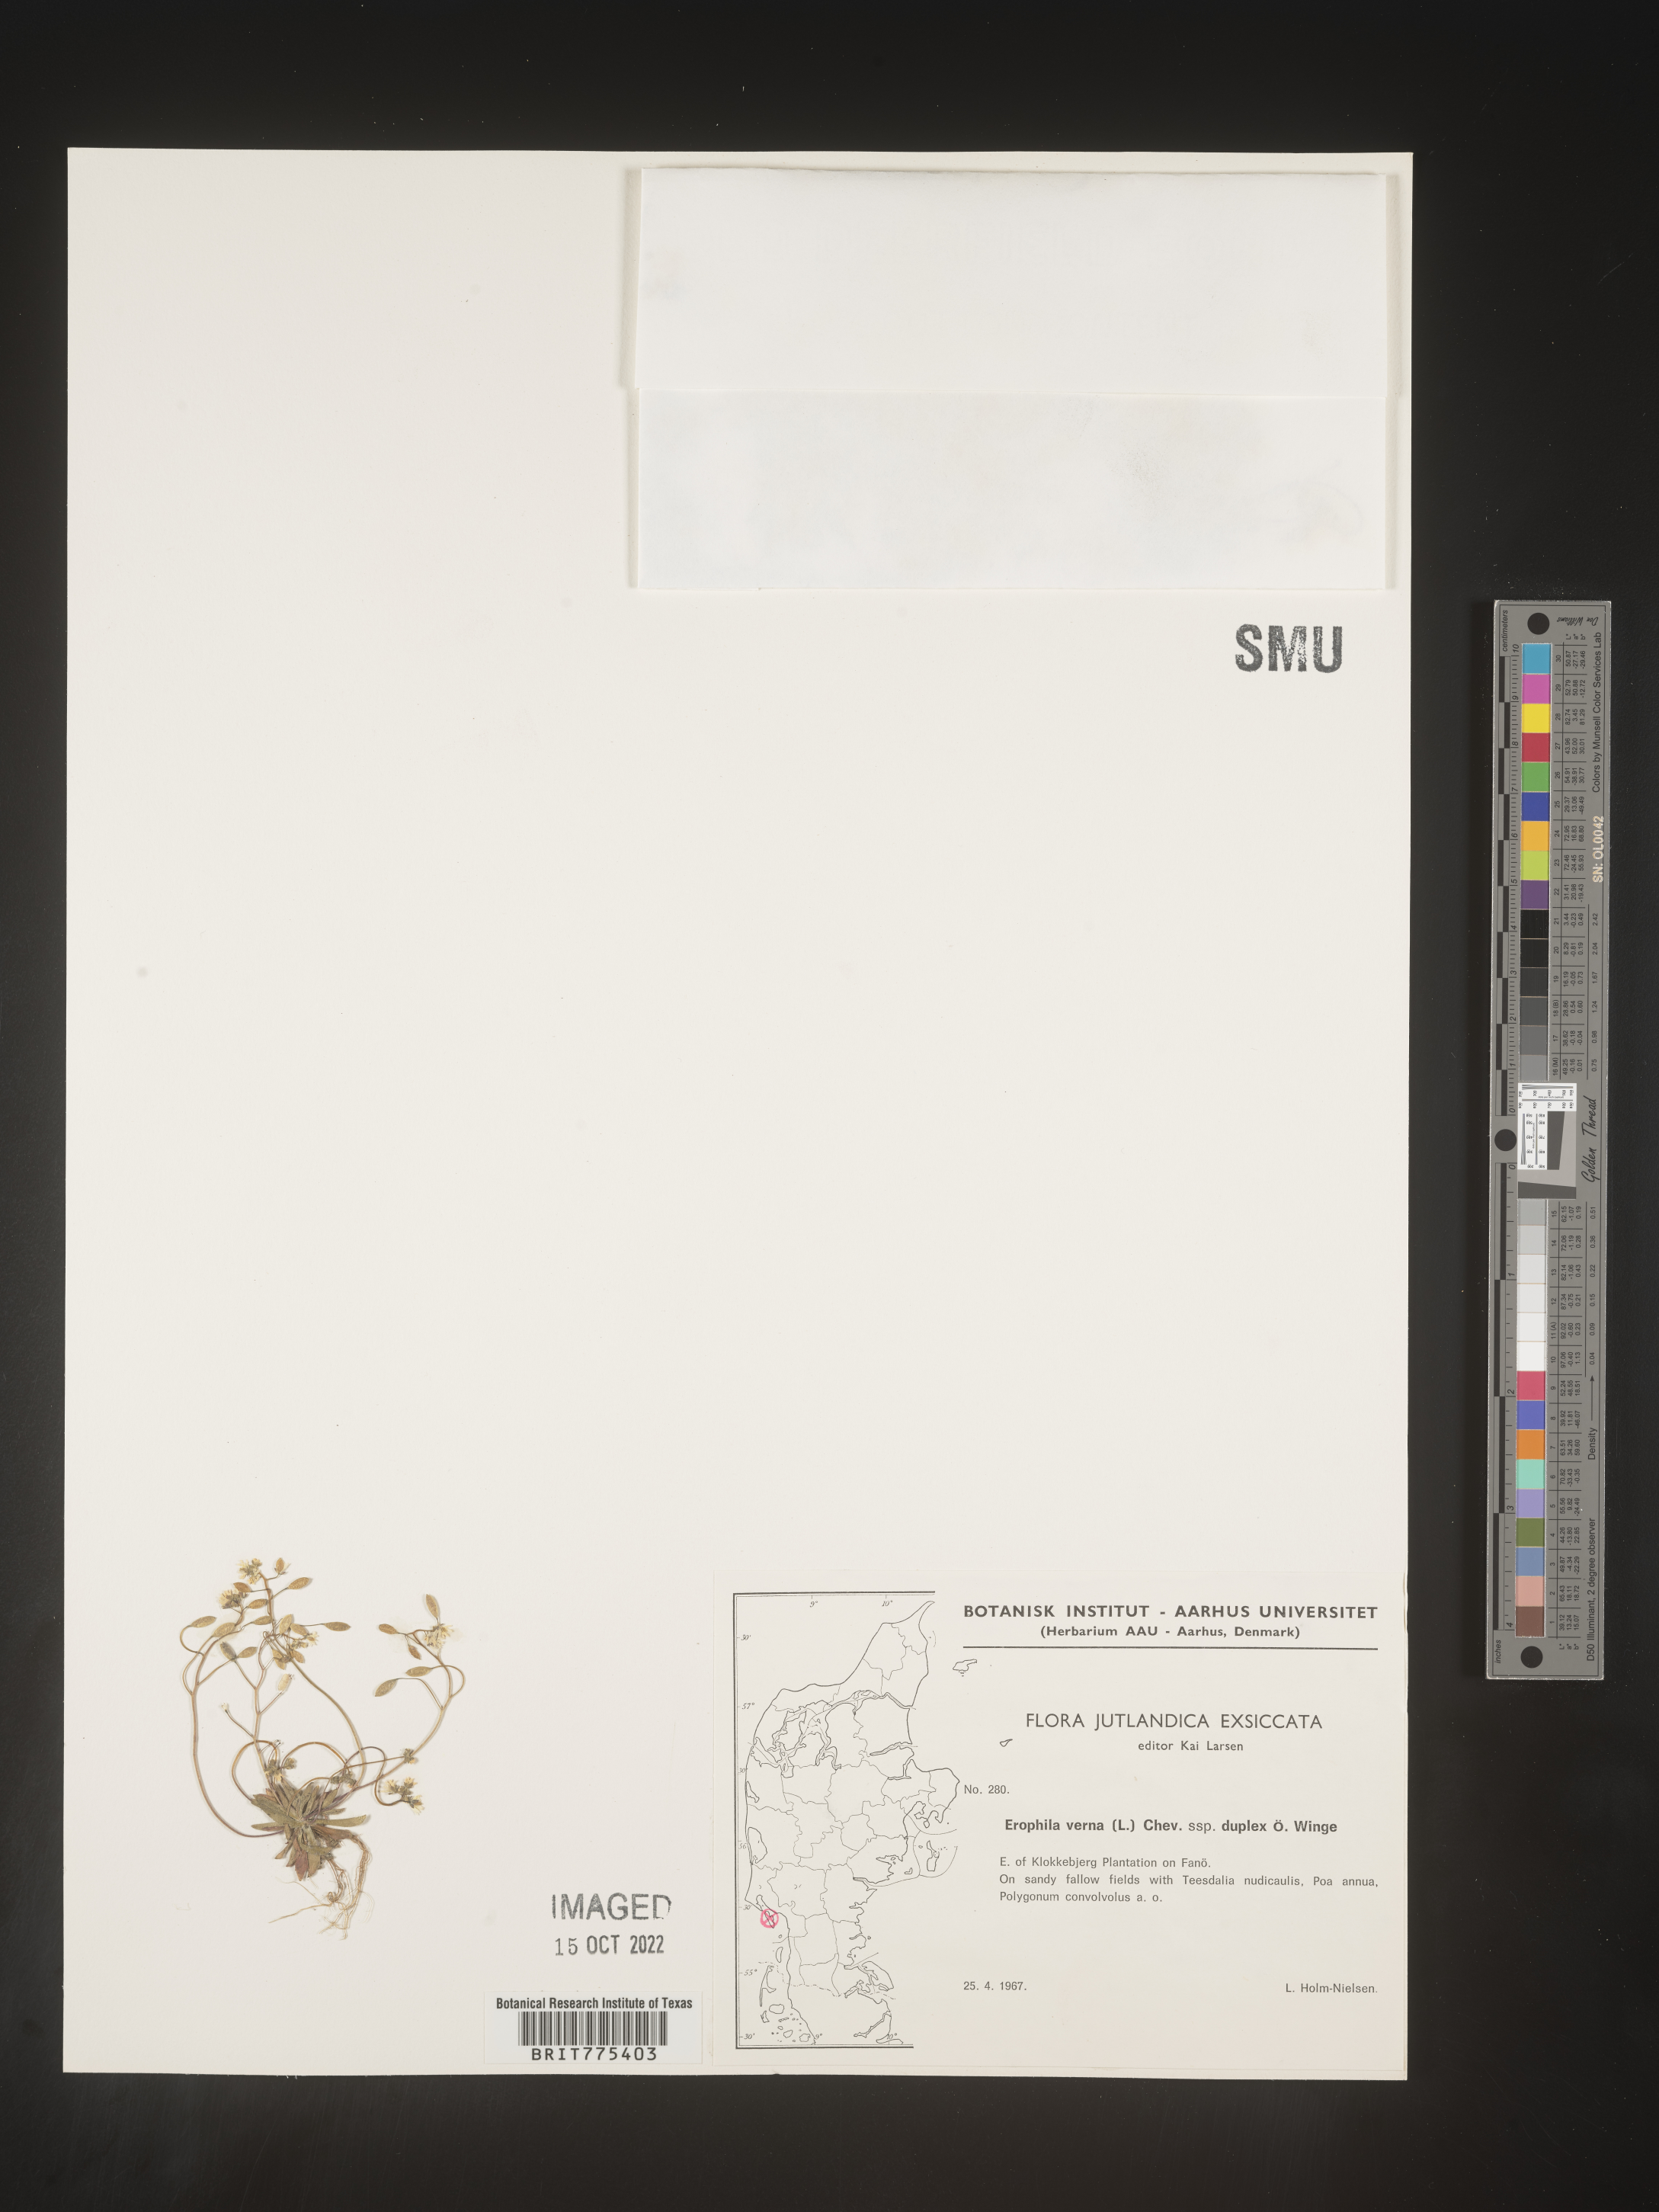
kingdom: Plantae
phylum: Tracheophyta
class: Magnoliopsida
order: Brassicales
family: Brassicaceae
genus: Draba
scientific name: Draba
